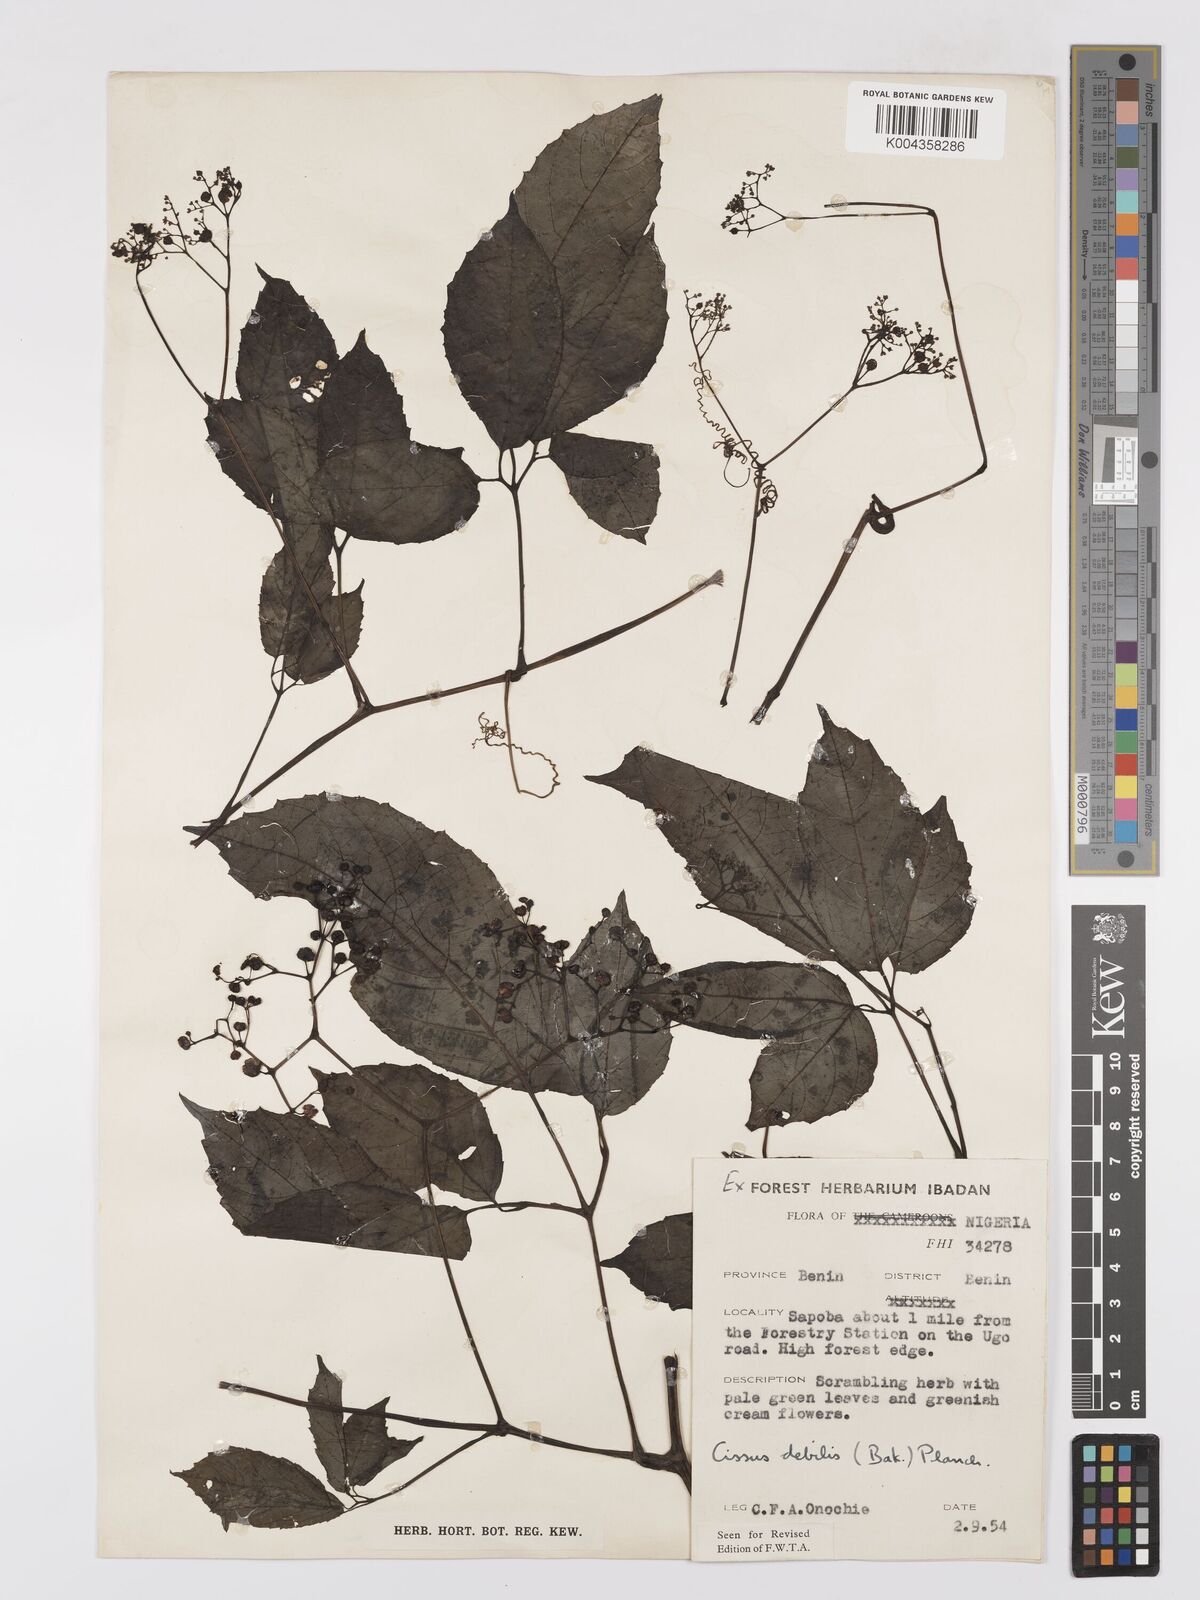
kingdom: Plantae
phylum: Tracheophyta
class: Magnoliopsida
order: Vitales
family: Vitaceae
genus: Afrocayratia
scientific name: Afrocayratia debilis
